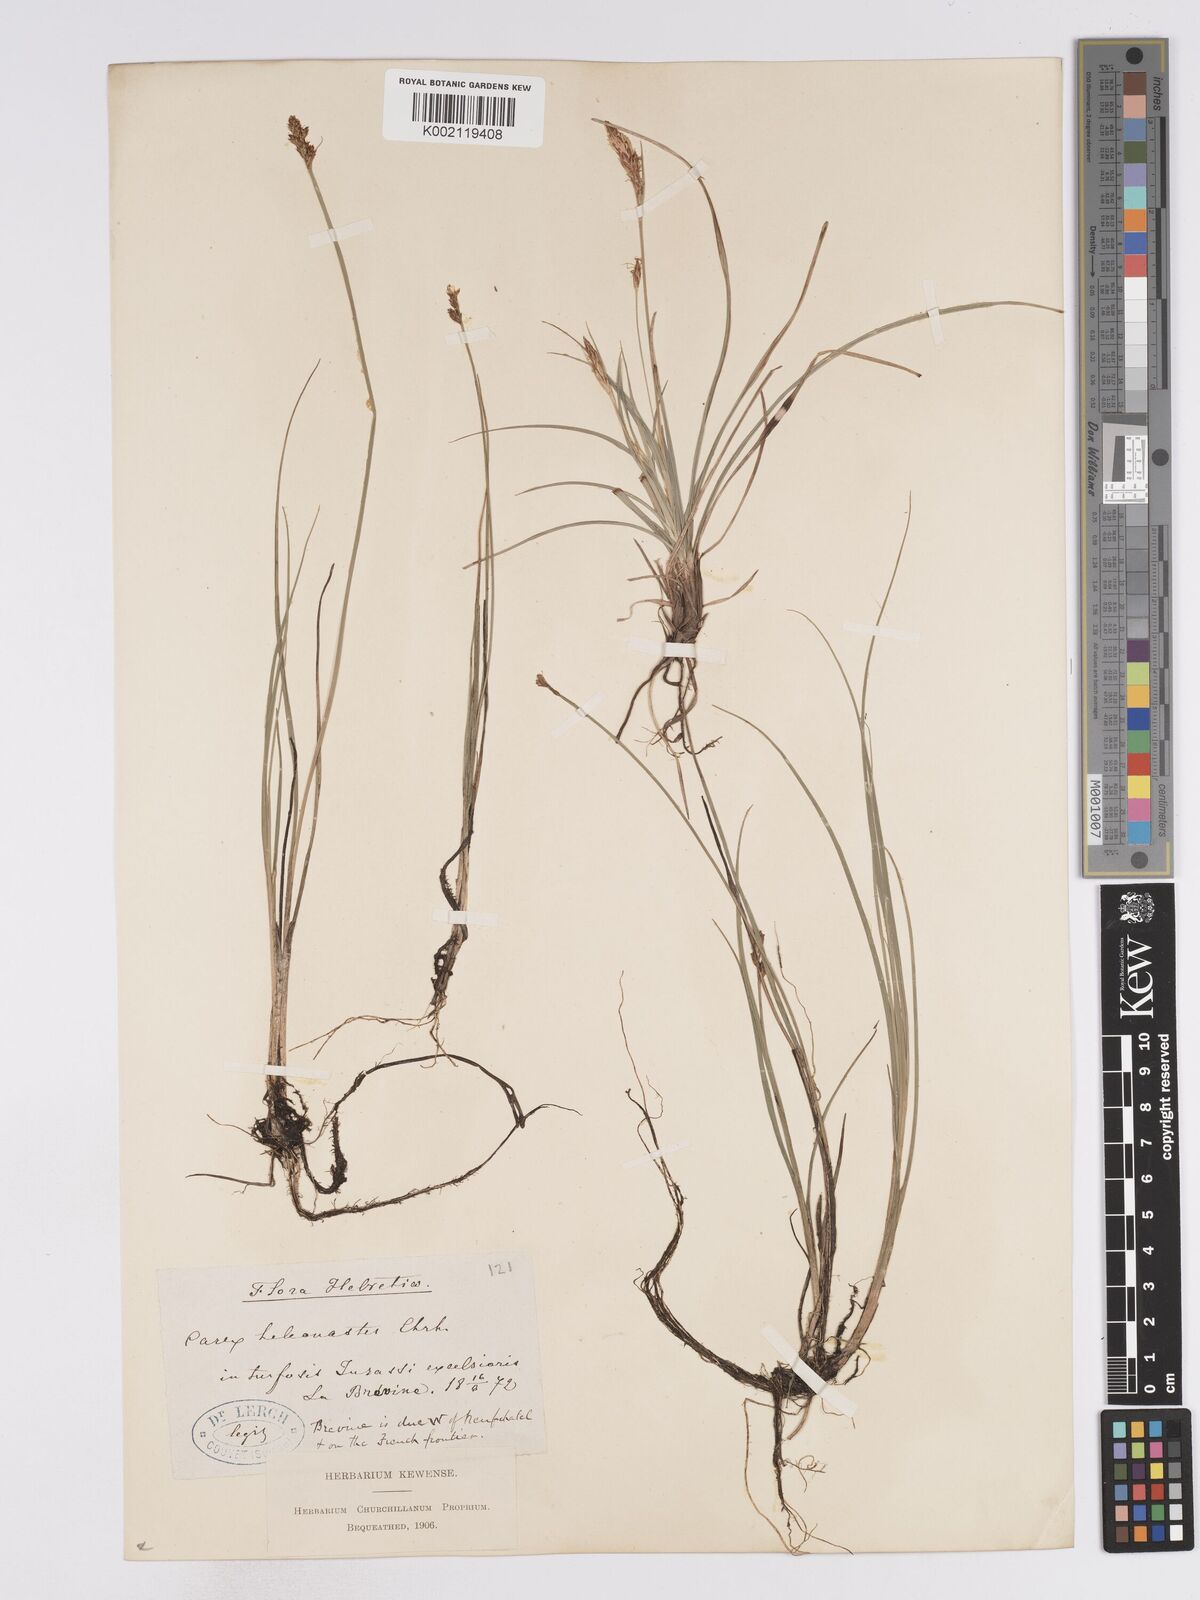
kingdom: Plantae
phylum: Tracheophyta
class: Liliopsida
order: Poales
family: Cyperaceae
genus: Carex
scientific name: Carex heleonastes
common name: Hudson bay sedge
